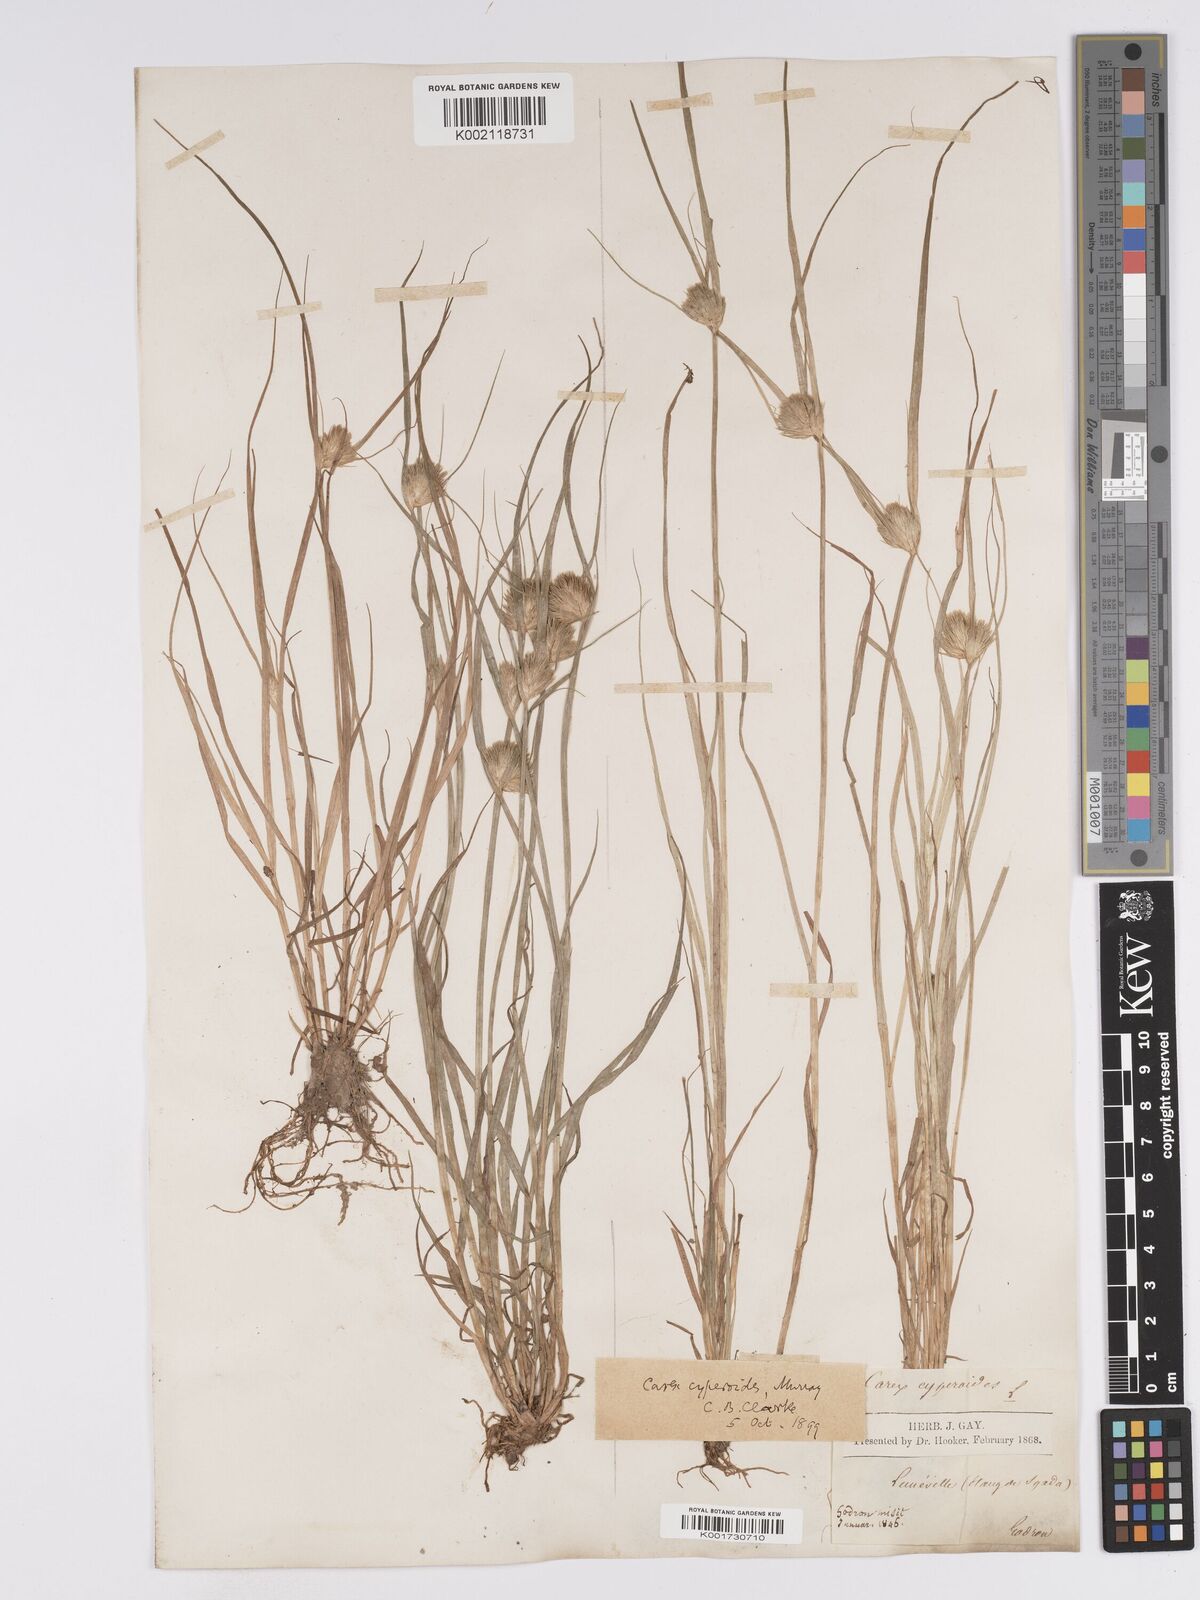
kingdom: Plantae
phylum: Tracheophyta
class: Liliopsida
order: Poales
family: Cyperaceae
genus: Carex
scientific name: Carex bohemica
